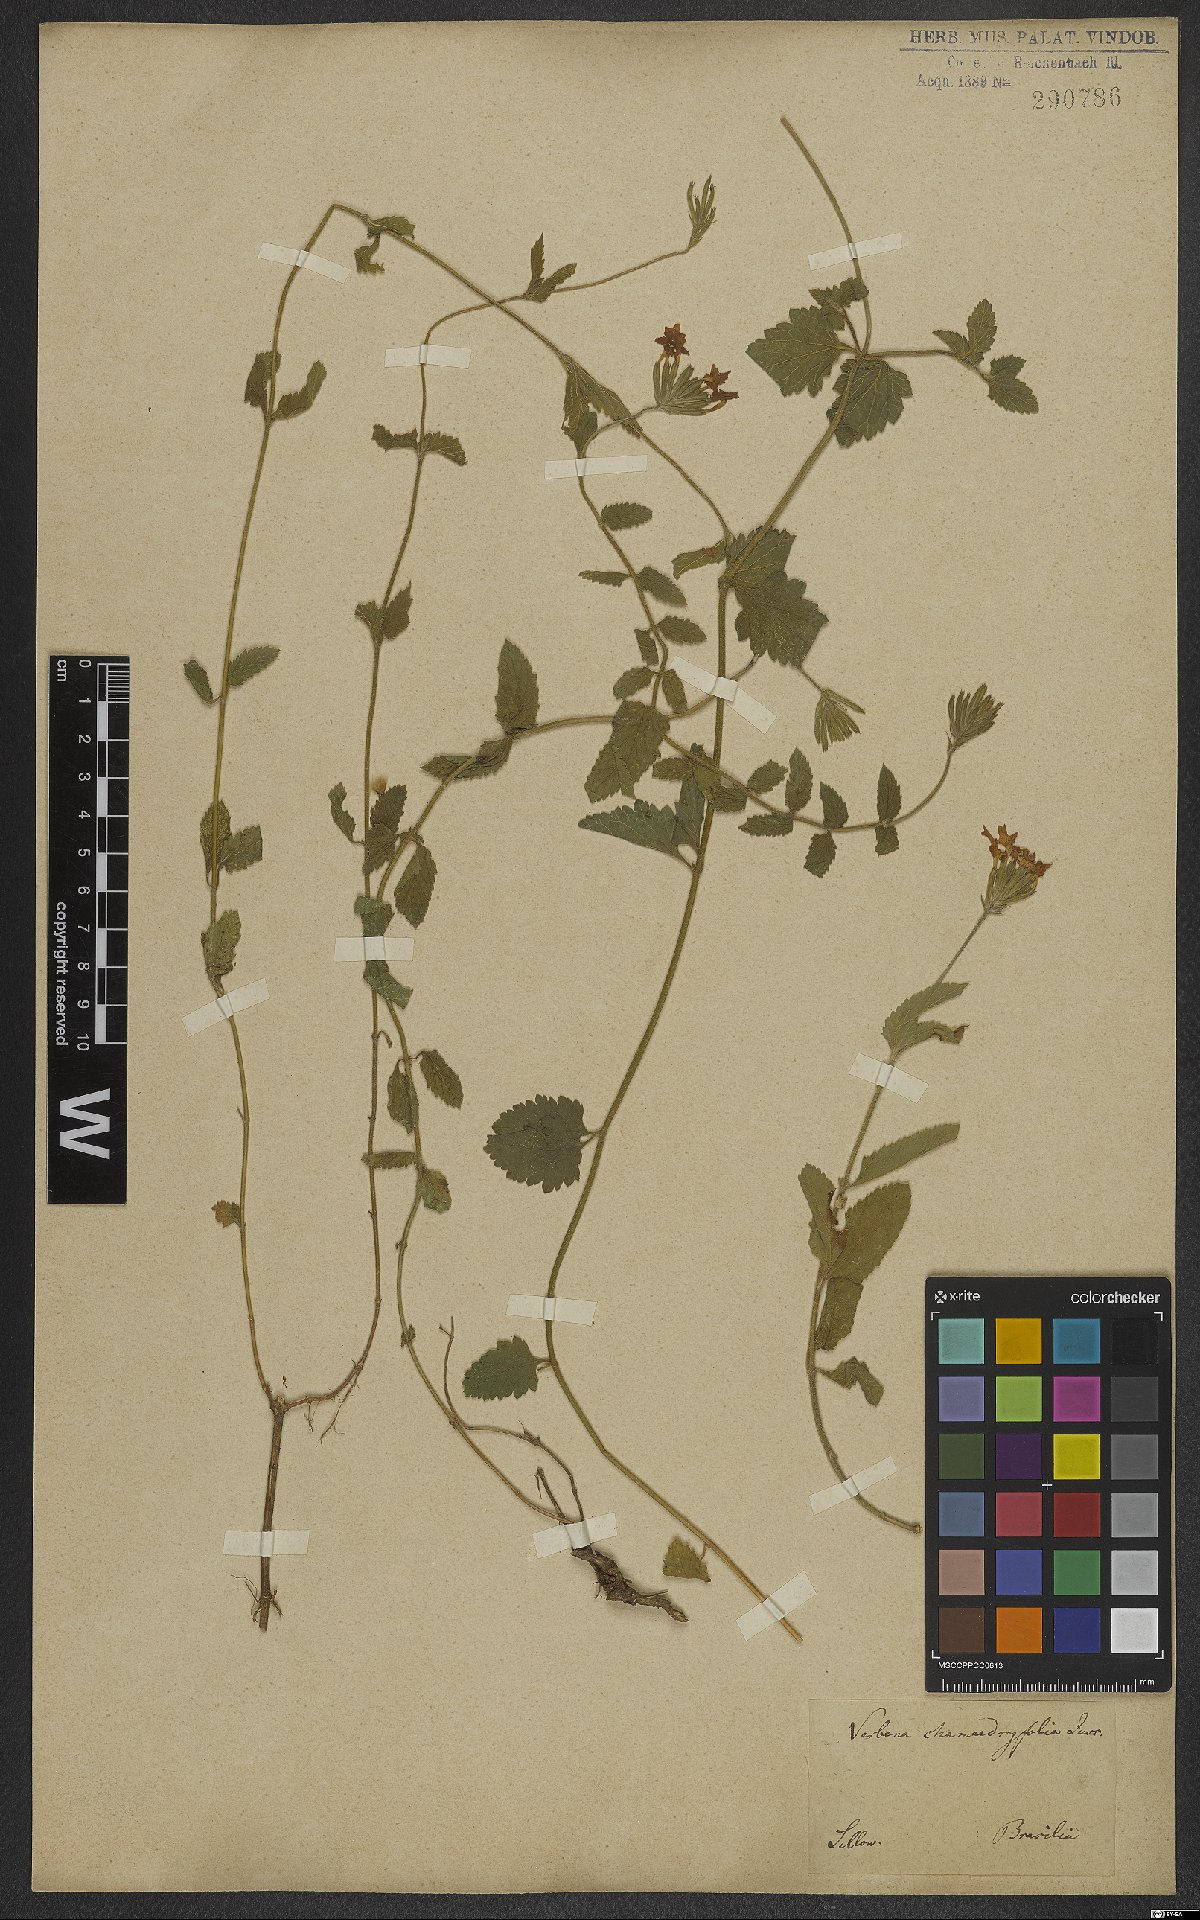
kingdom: Plantae
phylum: Tracheophyta
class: Magnoliopsida
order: Lamiales
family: Verbenaceae
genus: Verbena
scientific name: Verbena peruviana
